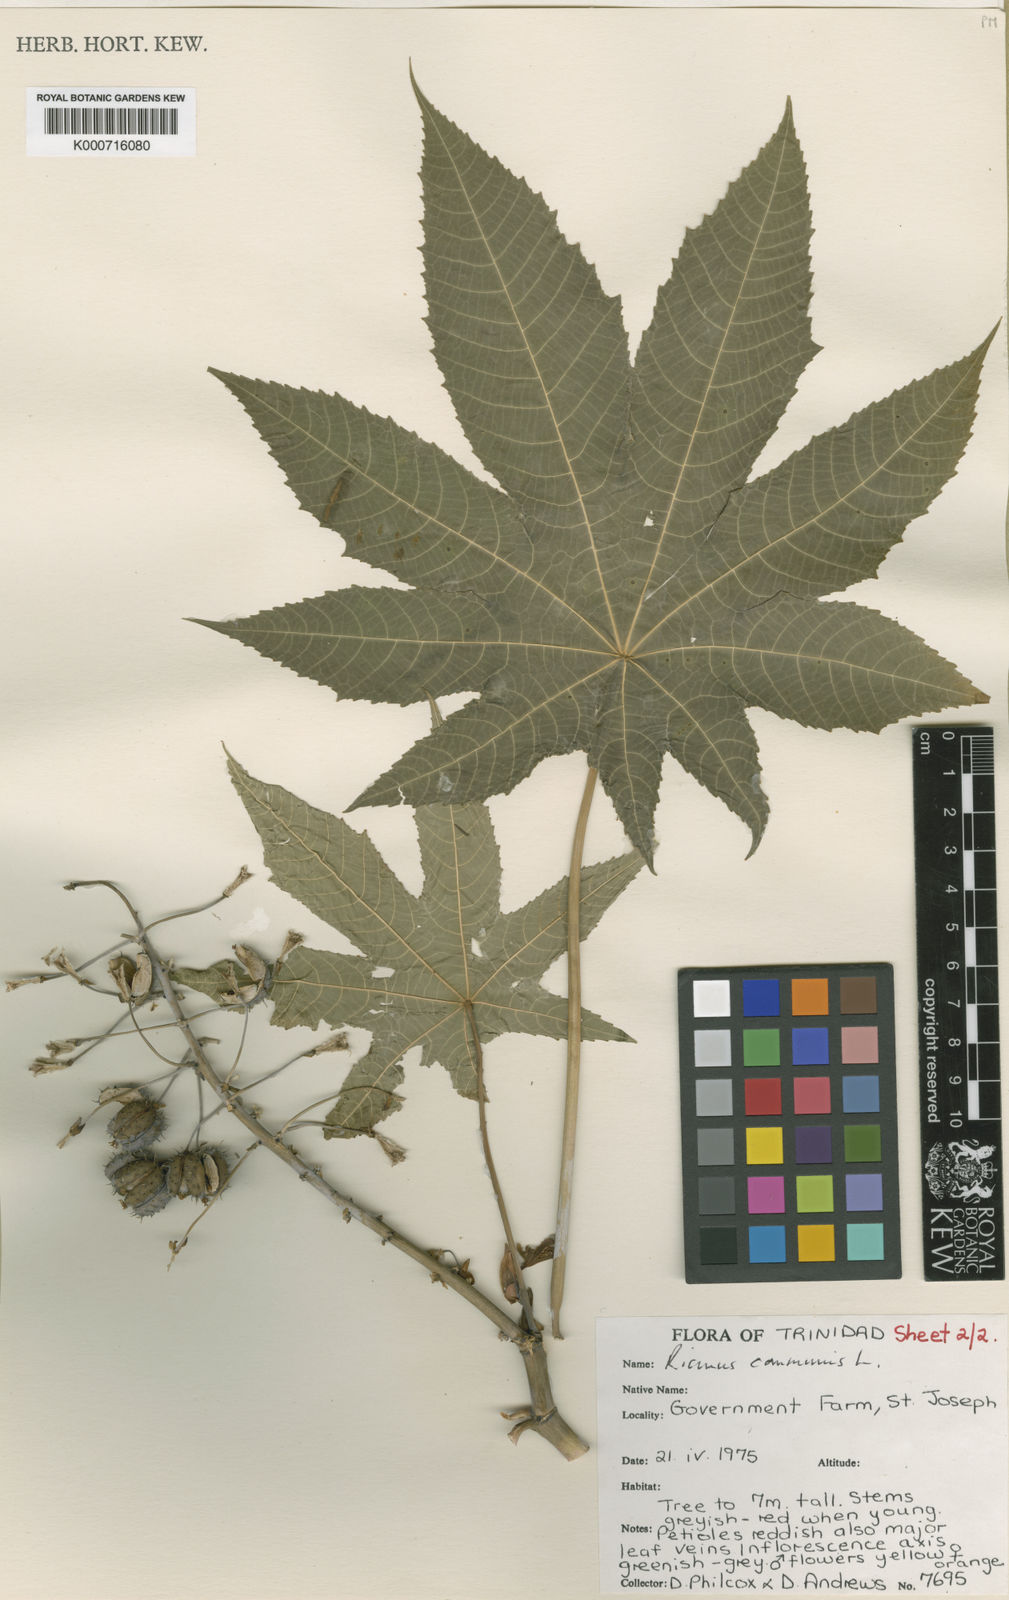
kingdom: Plantae
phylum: Tracheophyta
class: Magnoliopsida
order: Malpighiales
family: Euphorbiaceae
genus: Ricinus
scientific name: Ricinus communis
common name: Castor-oil-plant
